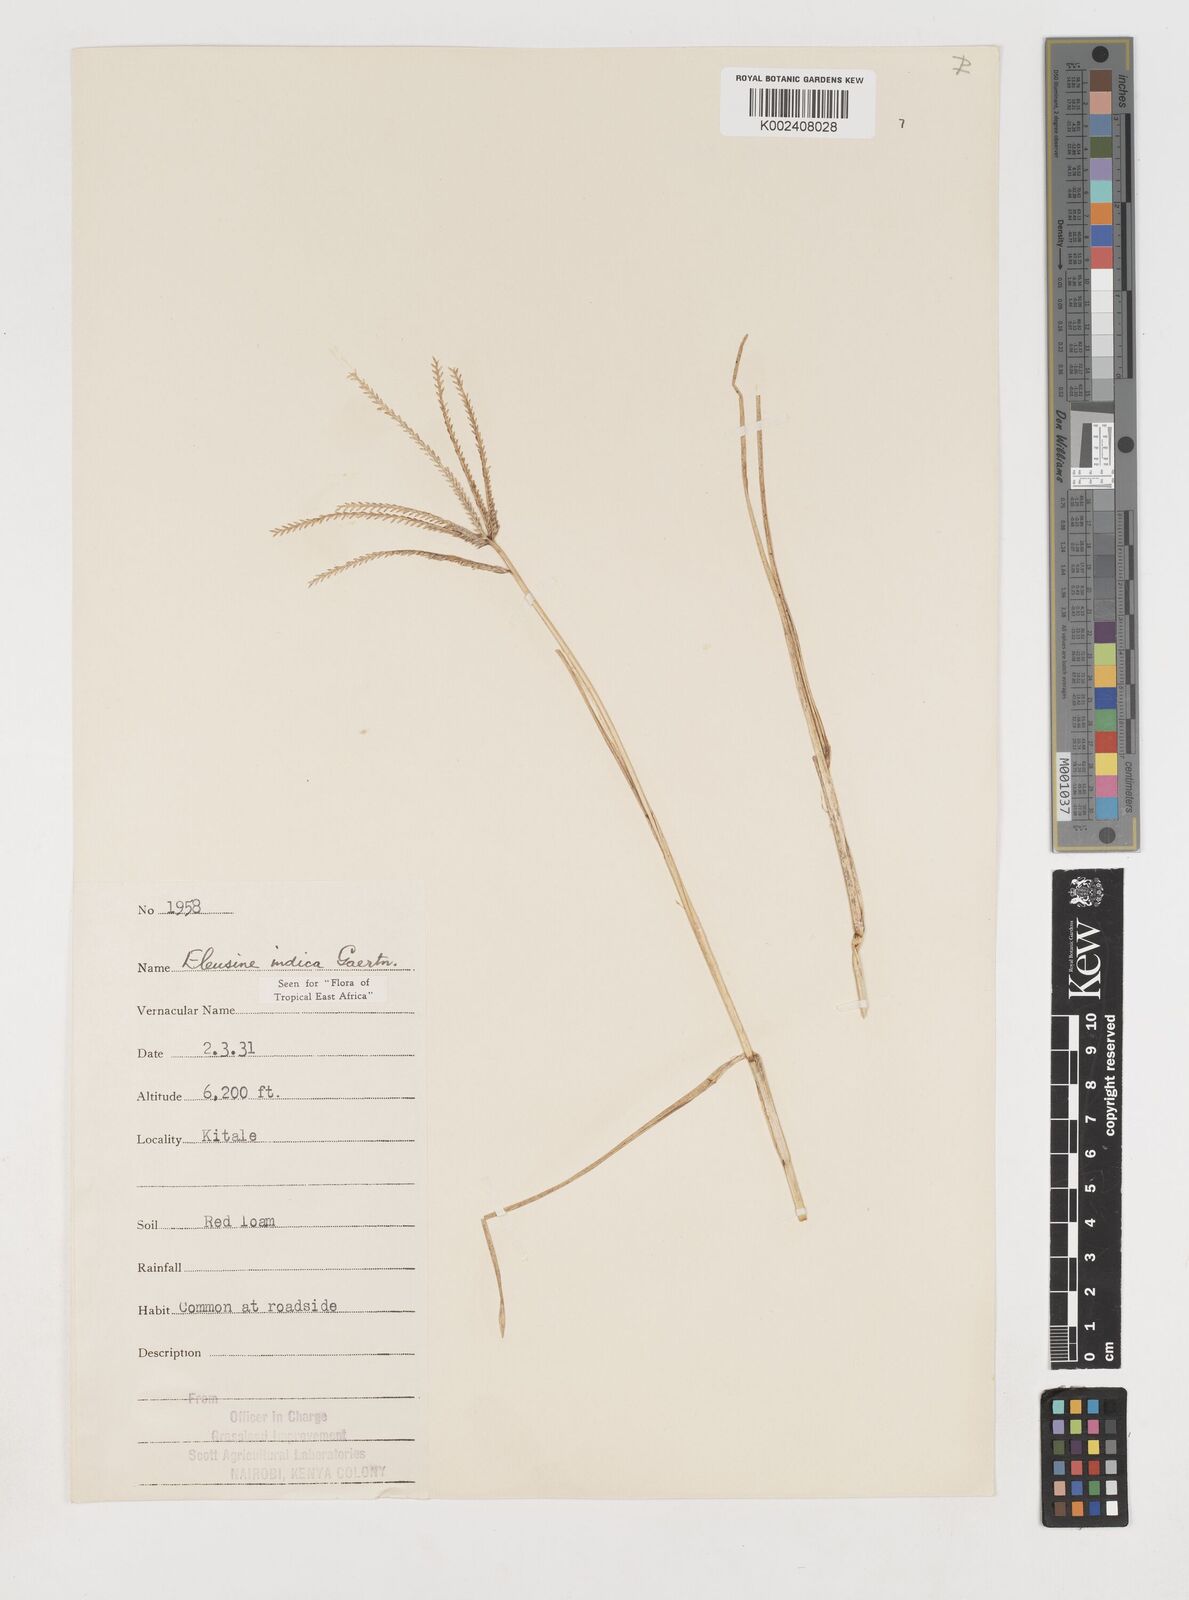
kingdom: Plantae
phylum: Tracheophyta
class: Liliopsida
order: Poales
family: Poaceae
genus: Eleusine
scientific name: Eleusine indica
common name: Yard-grass
